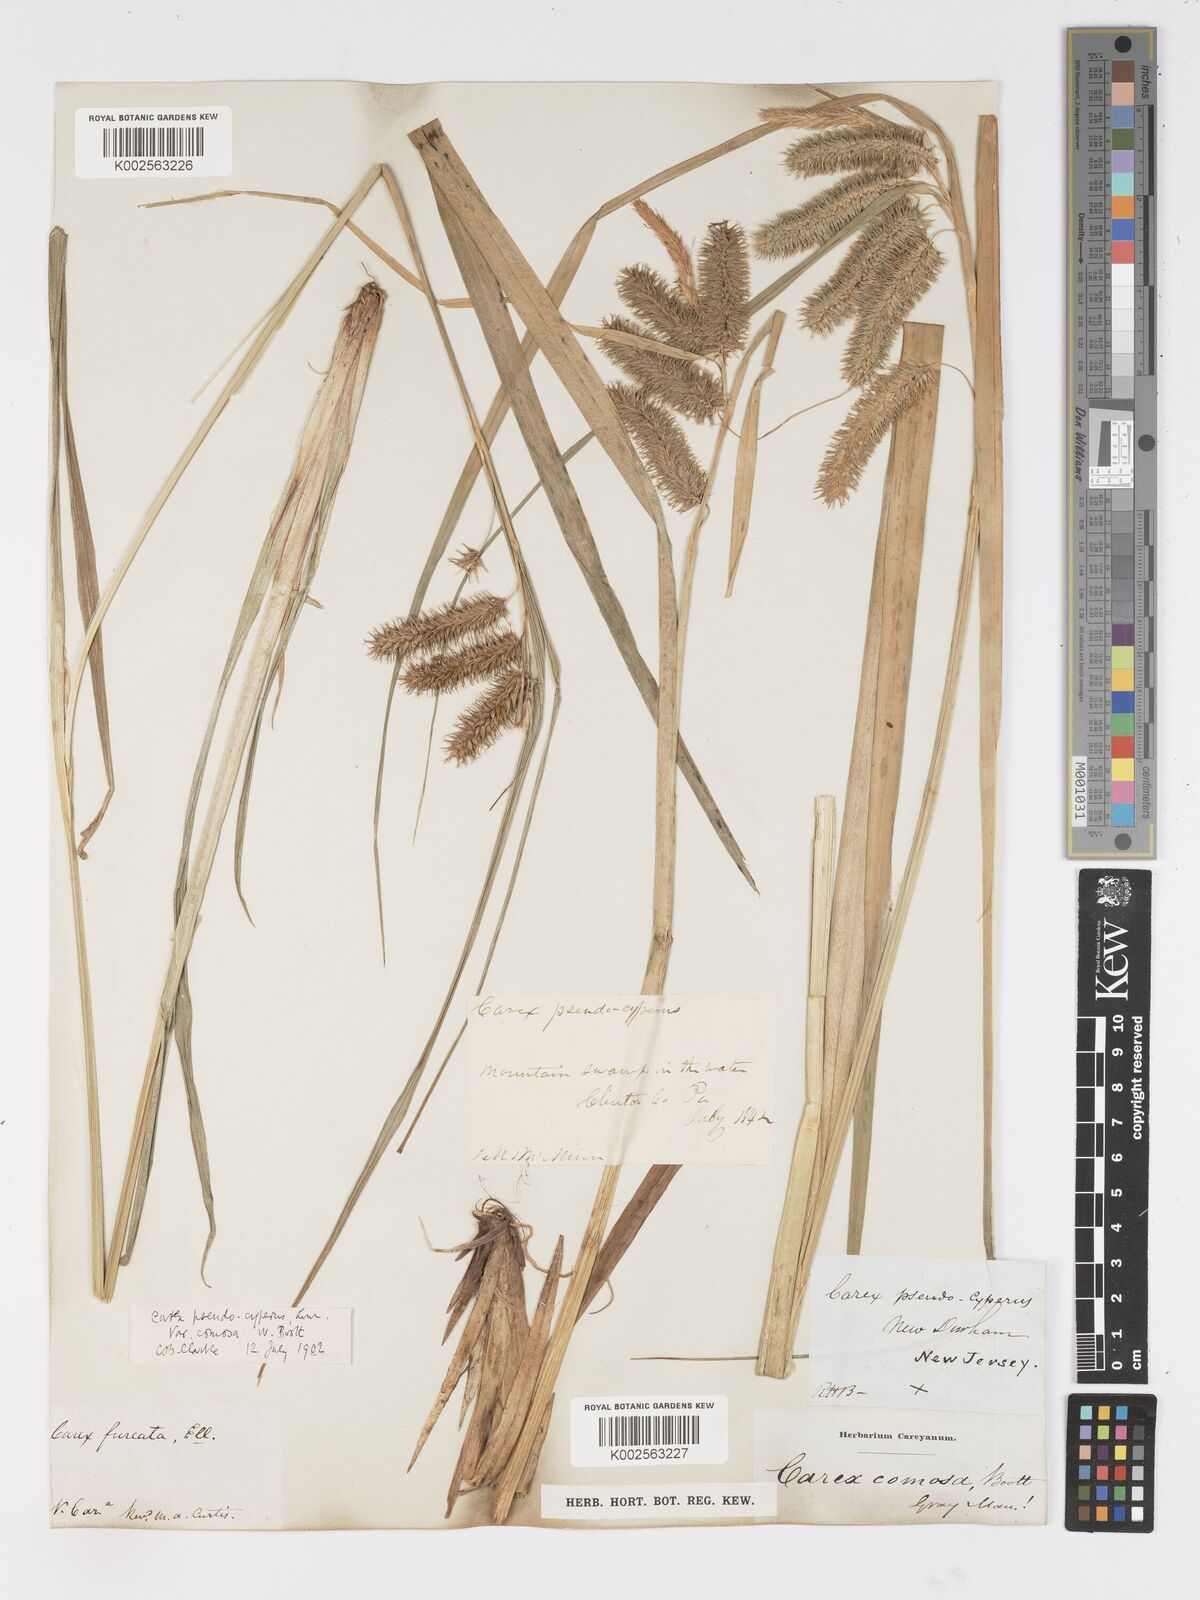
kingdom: Plantae
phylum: Tracheophyta
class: Liliopsida
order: Poales
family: Cyperaceae
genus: Carex
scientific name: Carex comosa
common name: Bristly sedge
